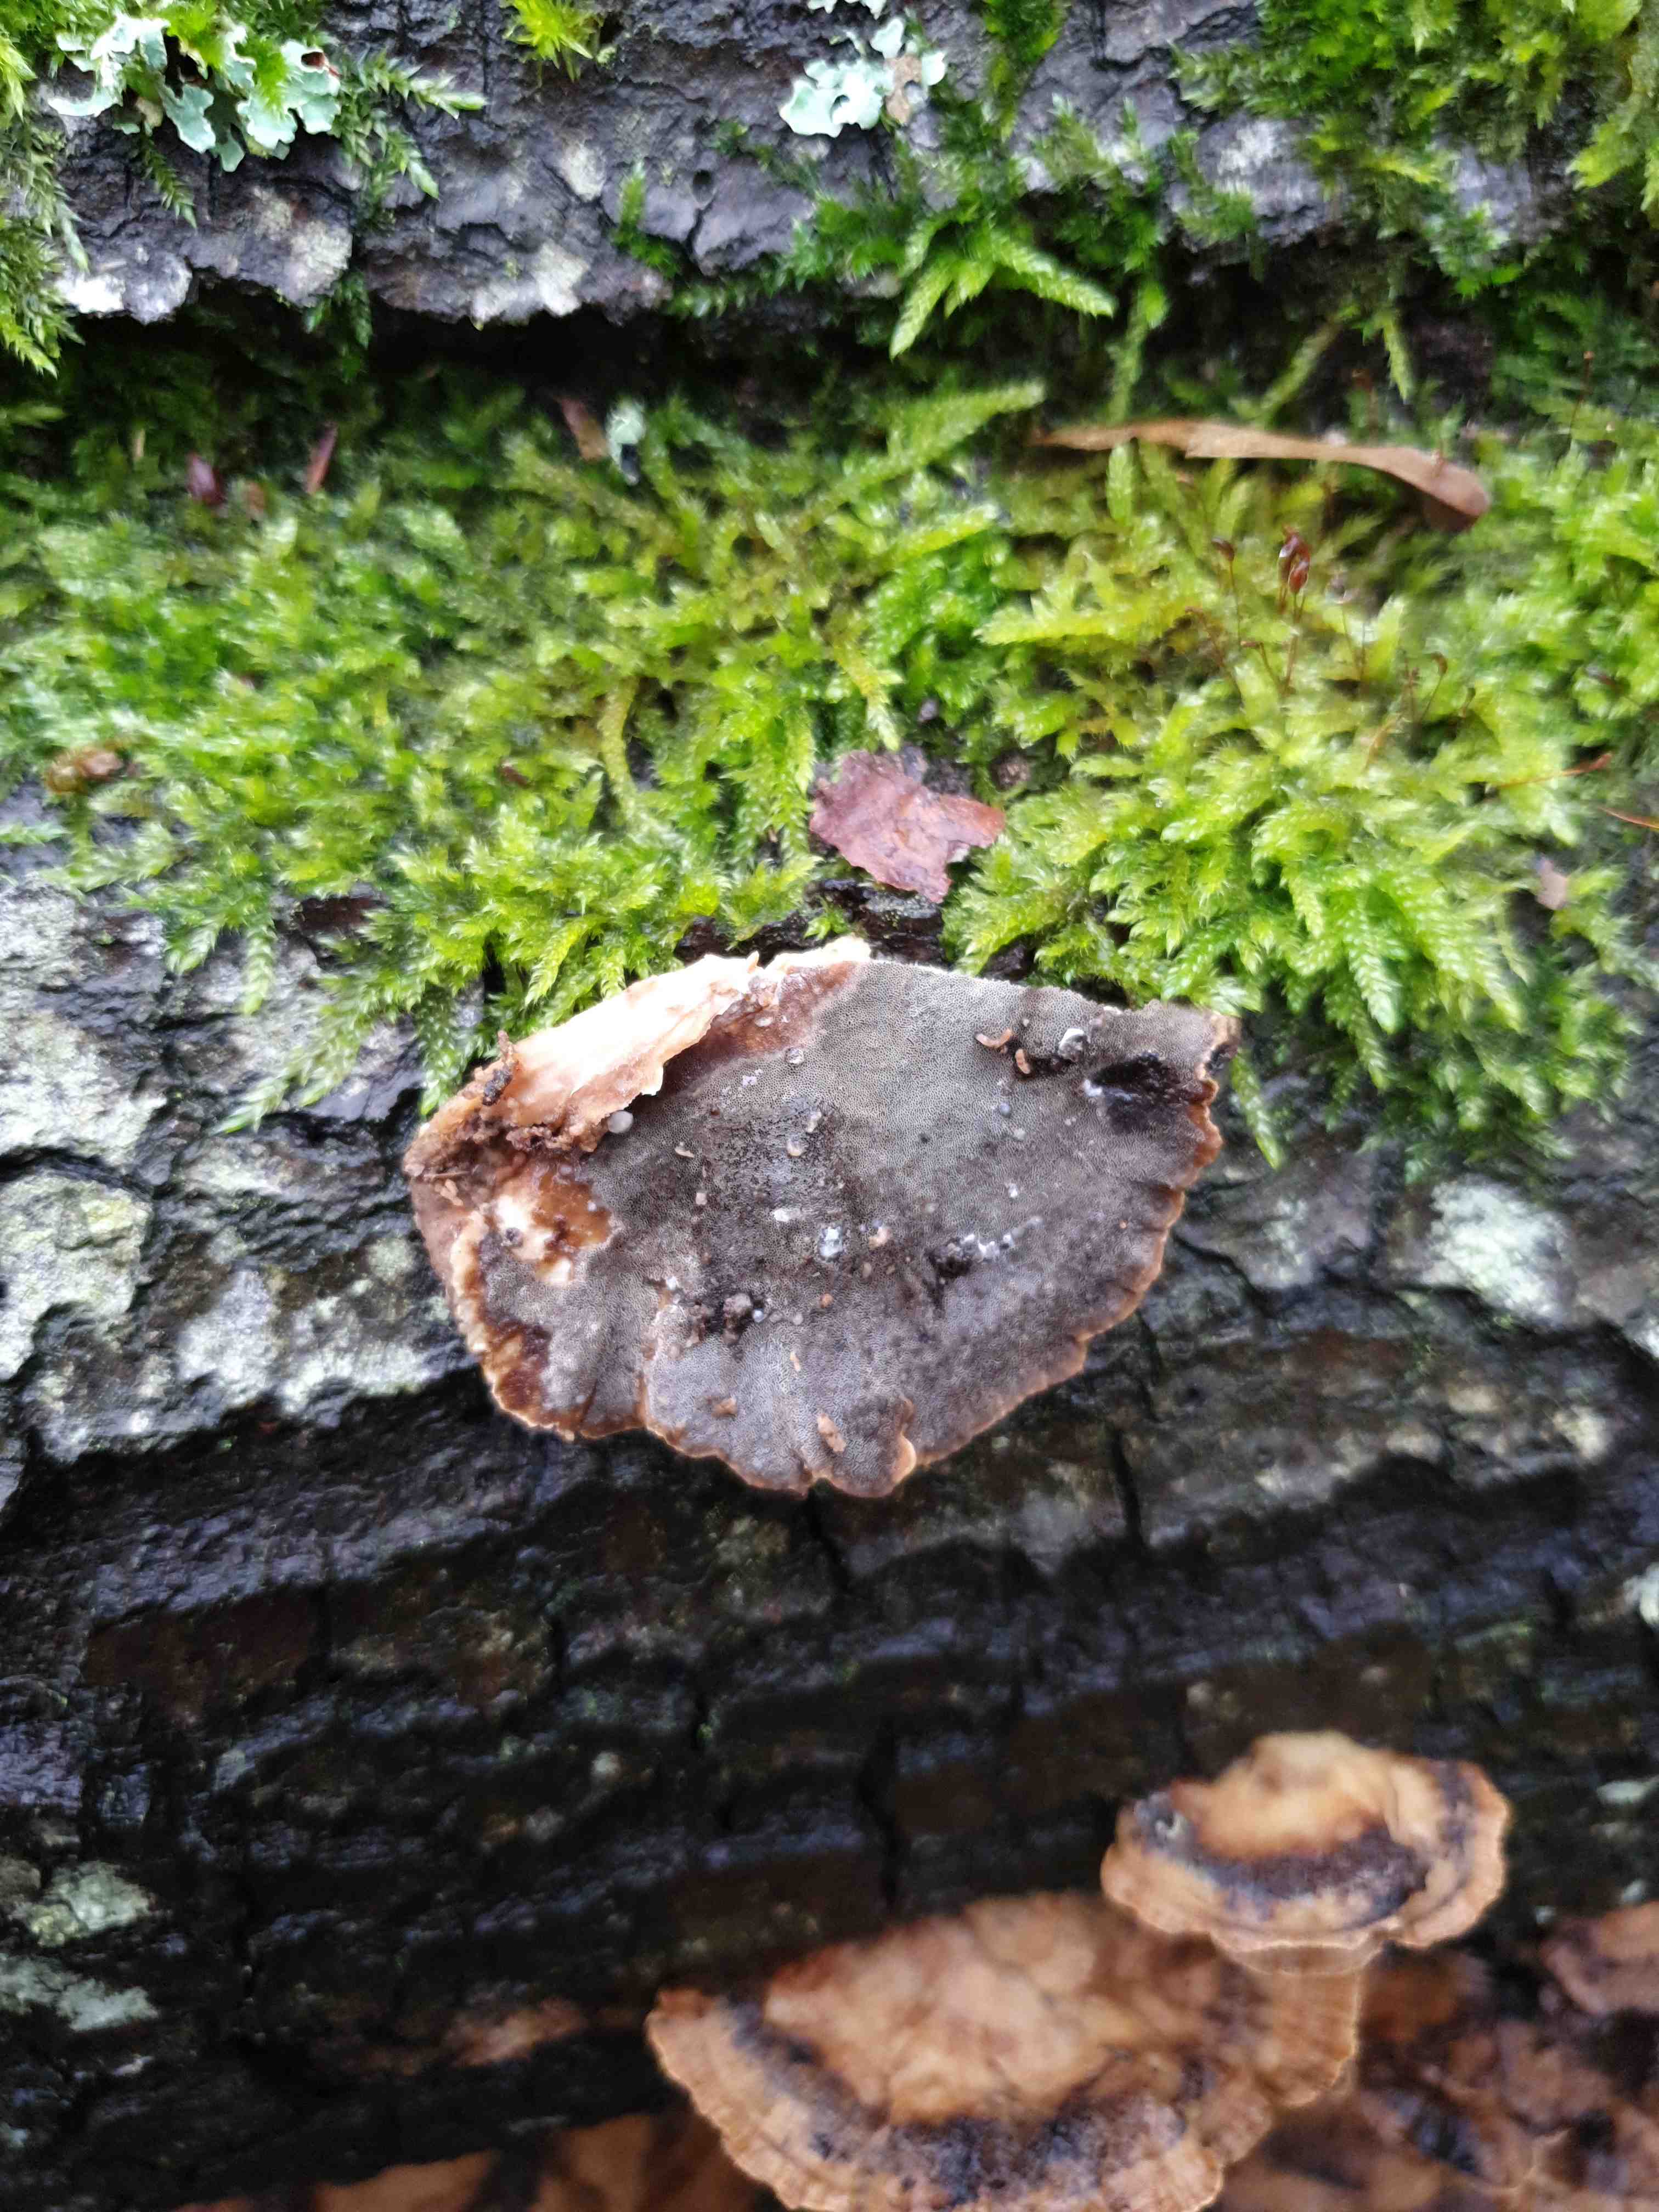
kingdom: Fungi
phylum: Basidiomycota
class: Agaricomycetes
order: Polyporales
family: Phanerochaetaceae
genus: Bjerkandera
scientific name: Bjerkandera adusta
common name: sveden sodporesvamp
